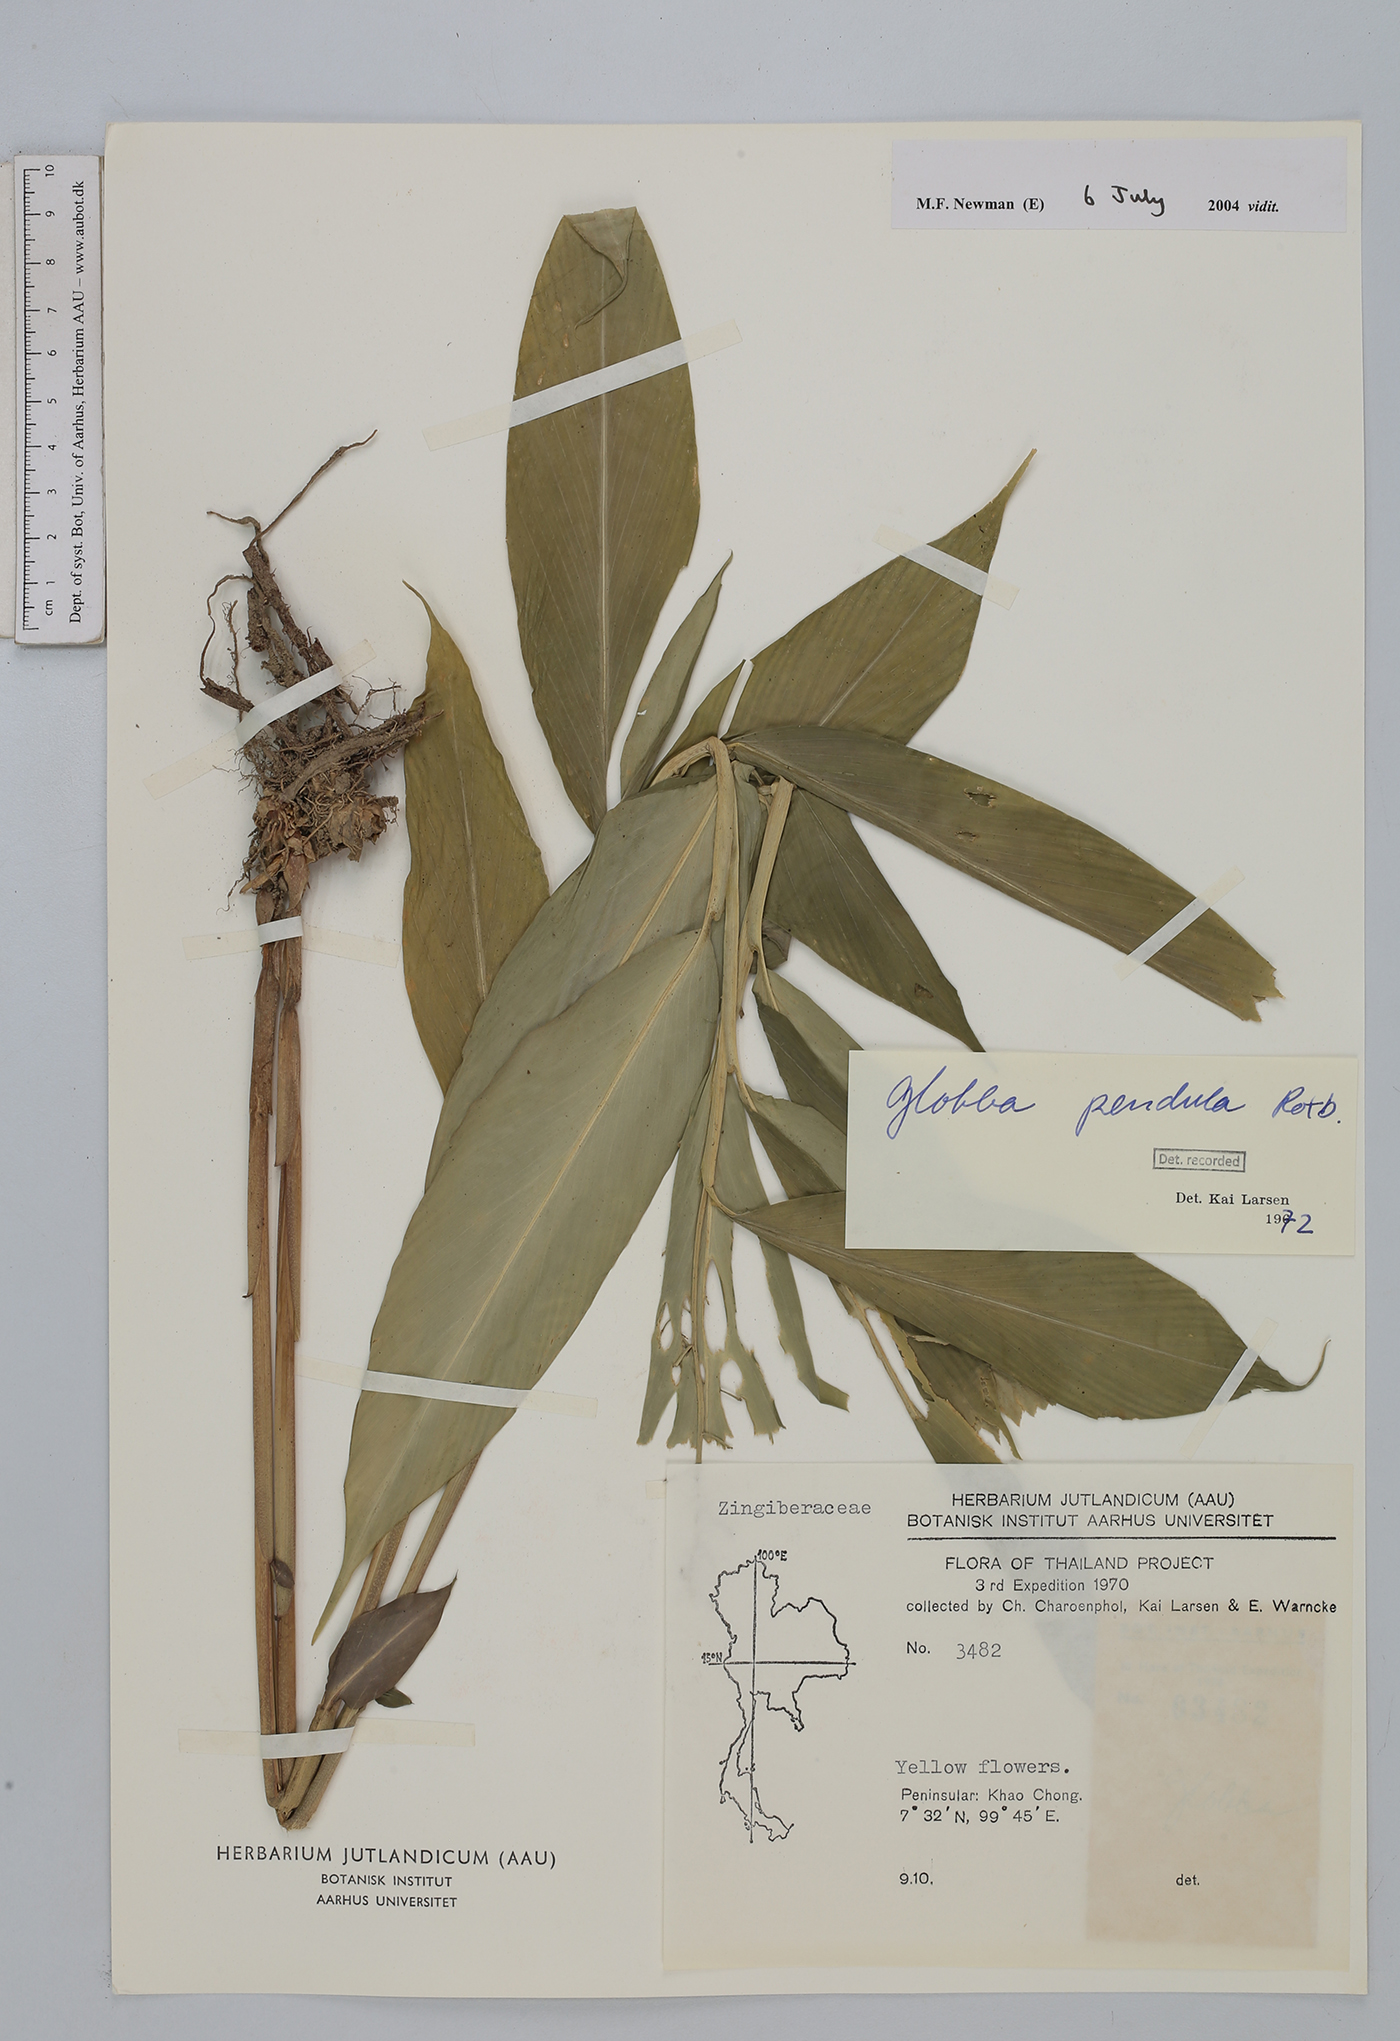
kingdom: Plantae
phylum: Tracheophyta
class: Liliopsida
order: Zingiberales
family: Zingiberaceae
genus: Globba
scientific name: Globba pendula
